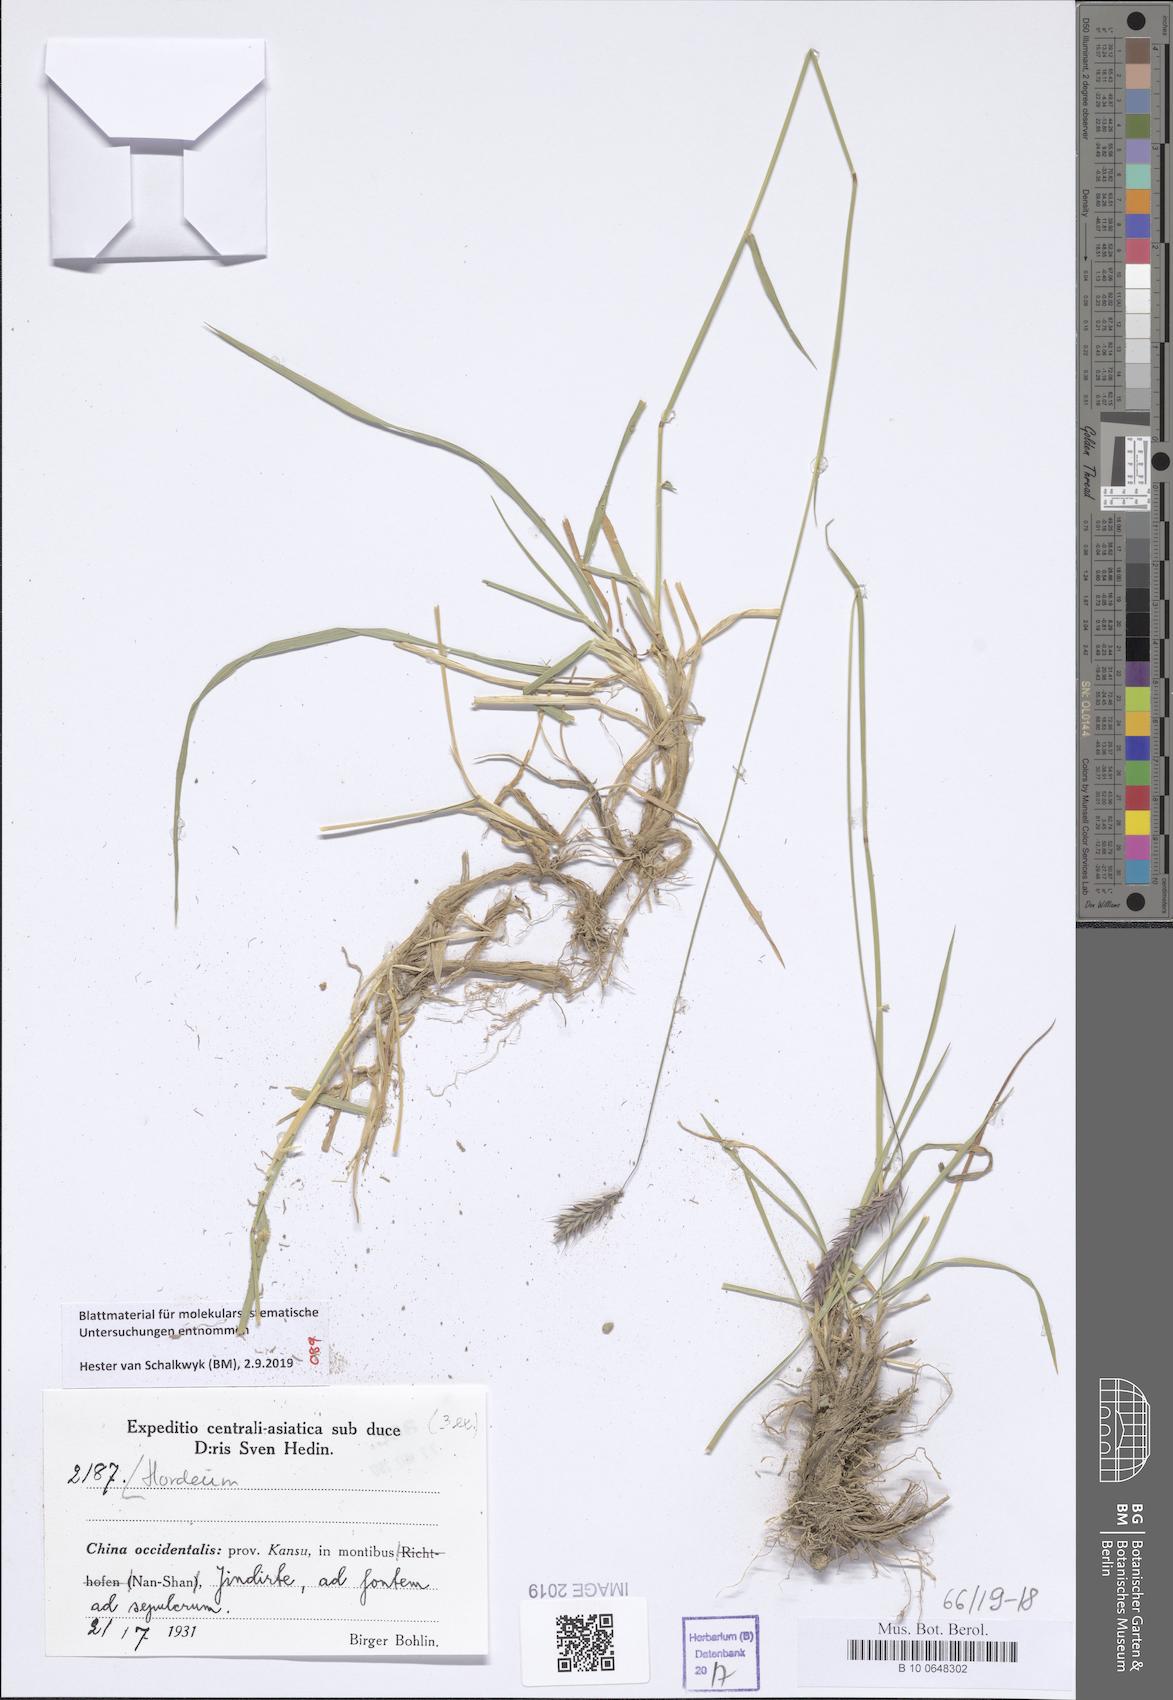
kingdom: Plantae
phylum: Tracheophyta
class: Liliopsida
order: Poales
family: Poaceae
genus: Hordeum
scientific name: Hordeum
